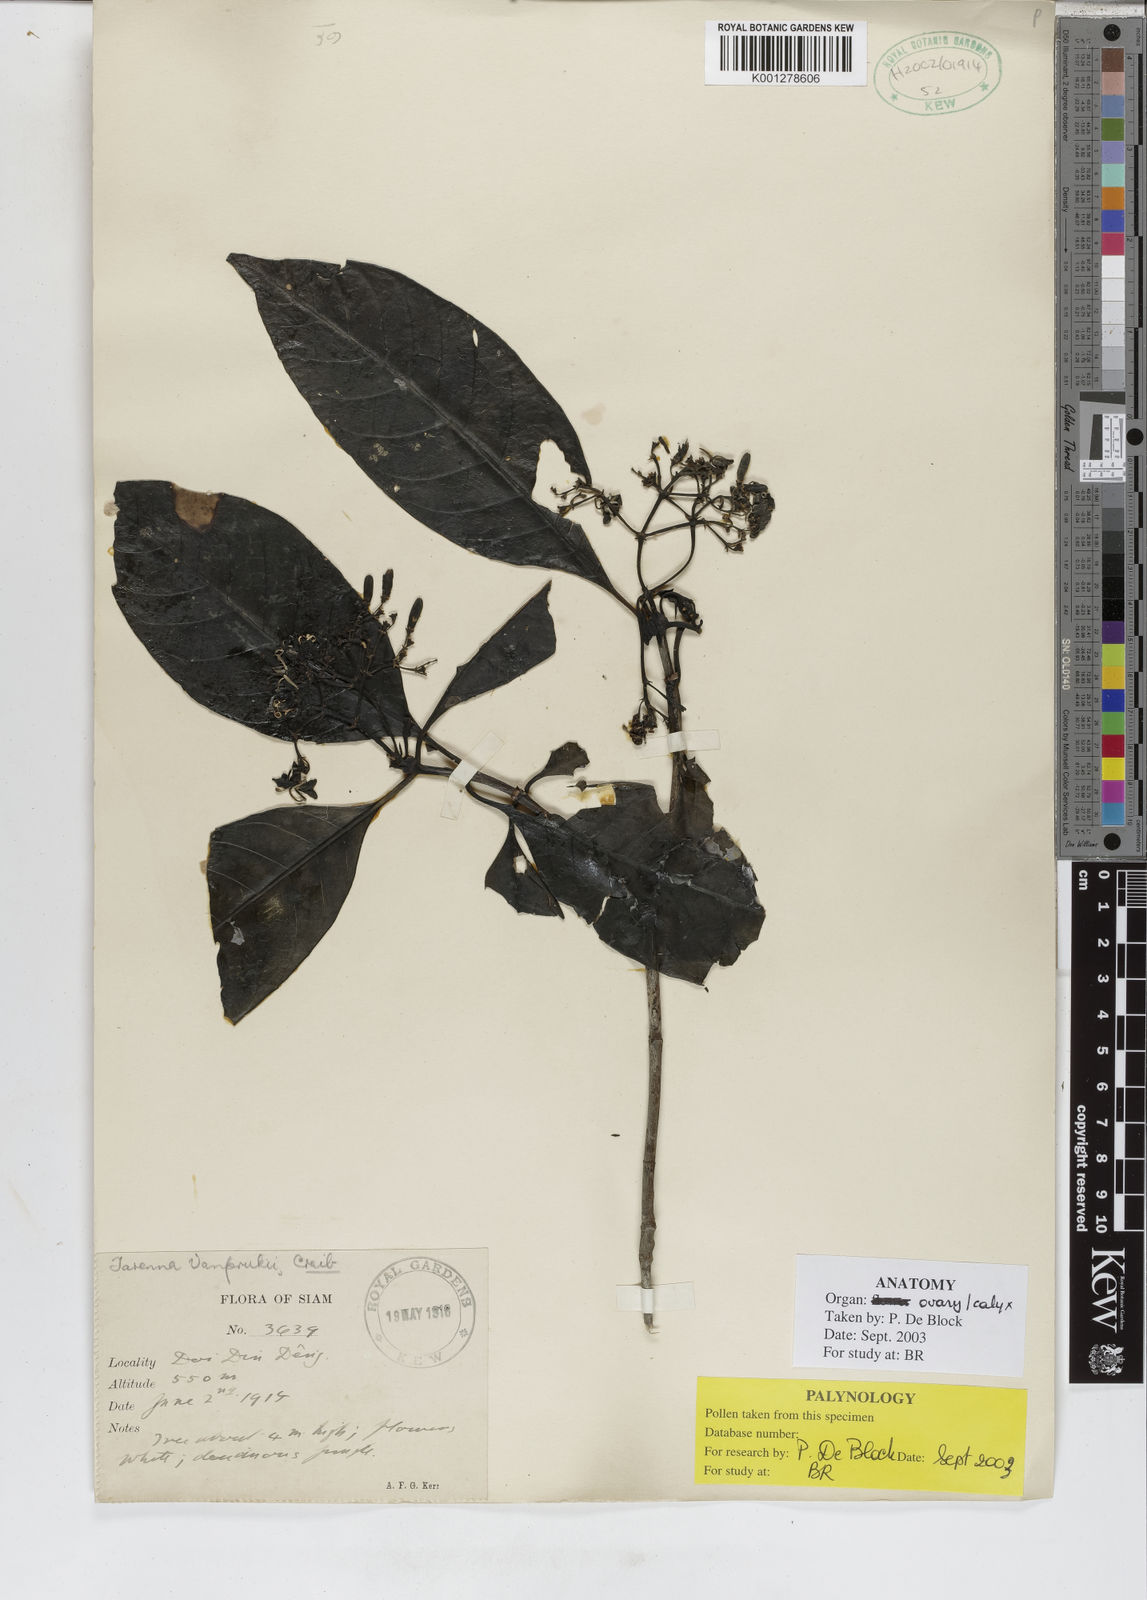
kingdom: Plantae
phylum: Tracheophyta
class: Magnoliopsida
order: Gentianales
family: Rubiaceae
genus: Tarenna
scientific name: Tarenna vanprukii
